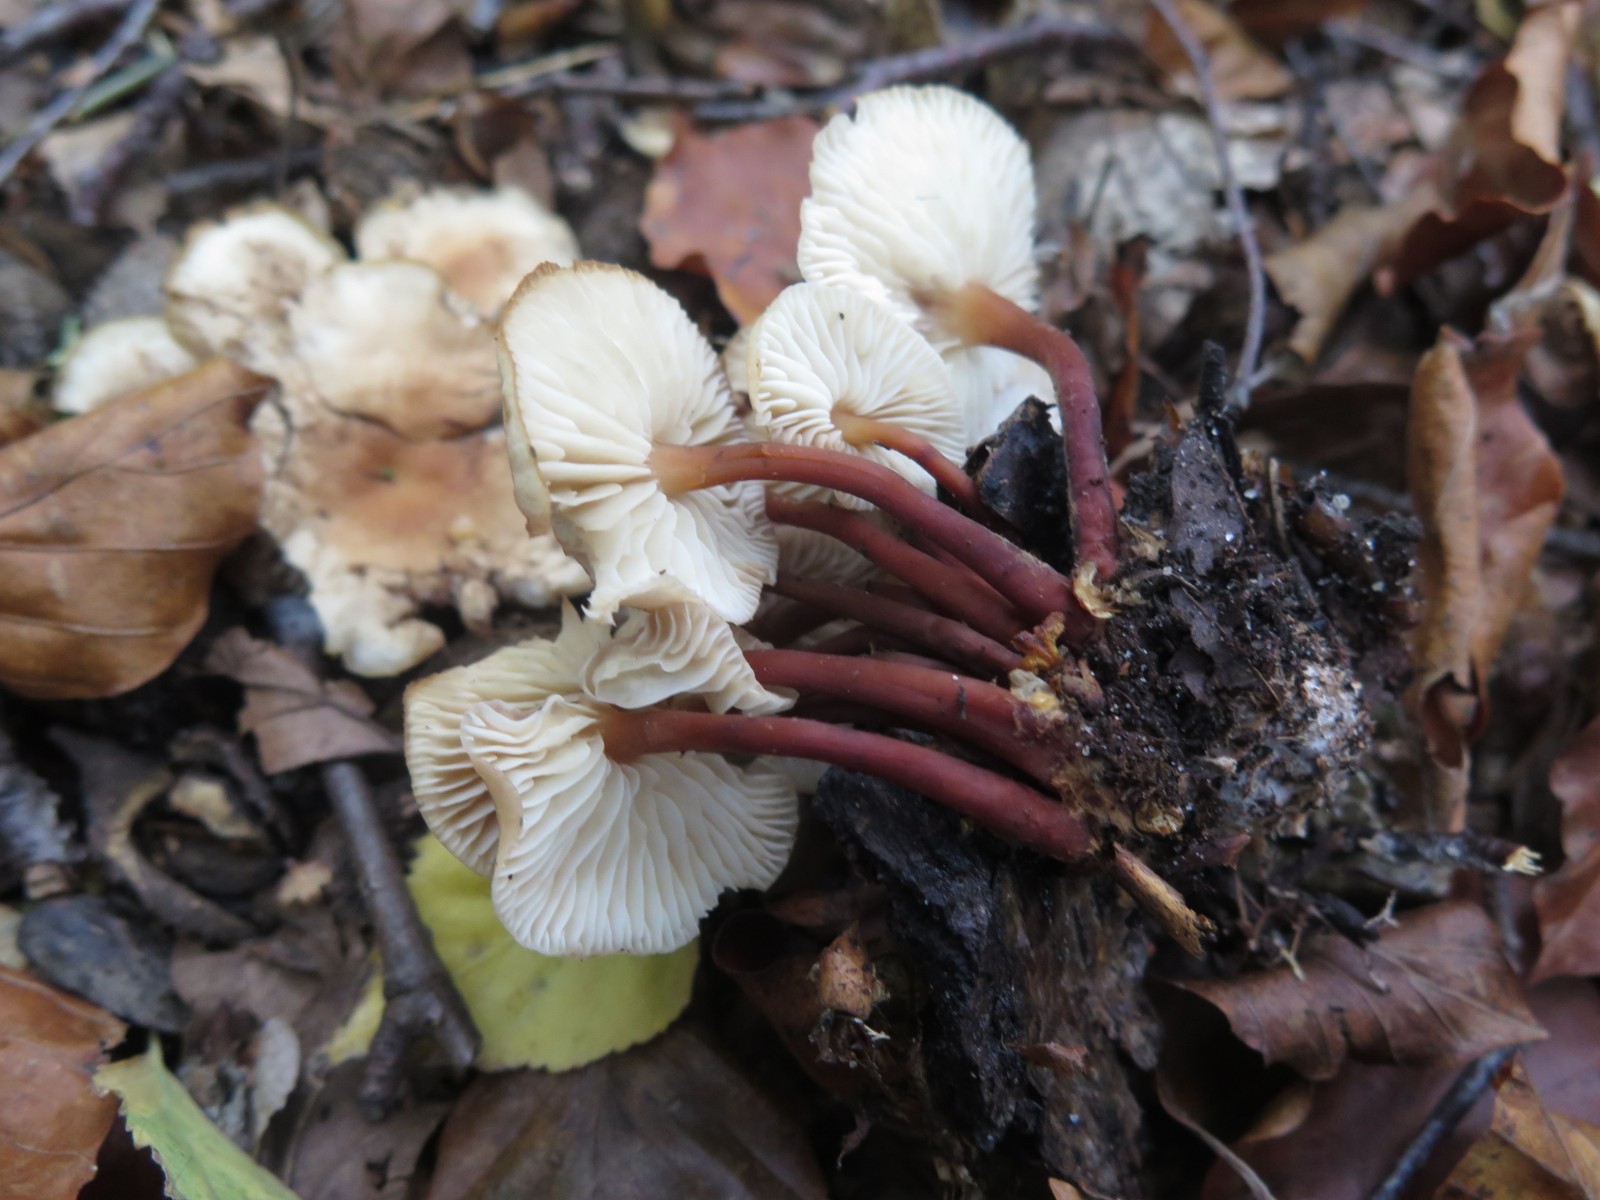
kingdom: Fungi
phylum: Basidiomycota
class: Agaricomycetes
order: Agaricales
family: Omphalotaceae
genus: Gymnopus
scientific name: Gymnopus erythropus
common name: rødstokket fladhat
